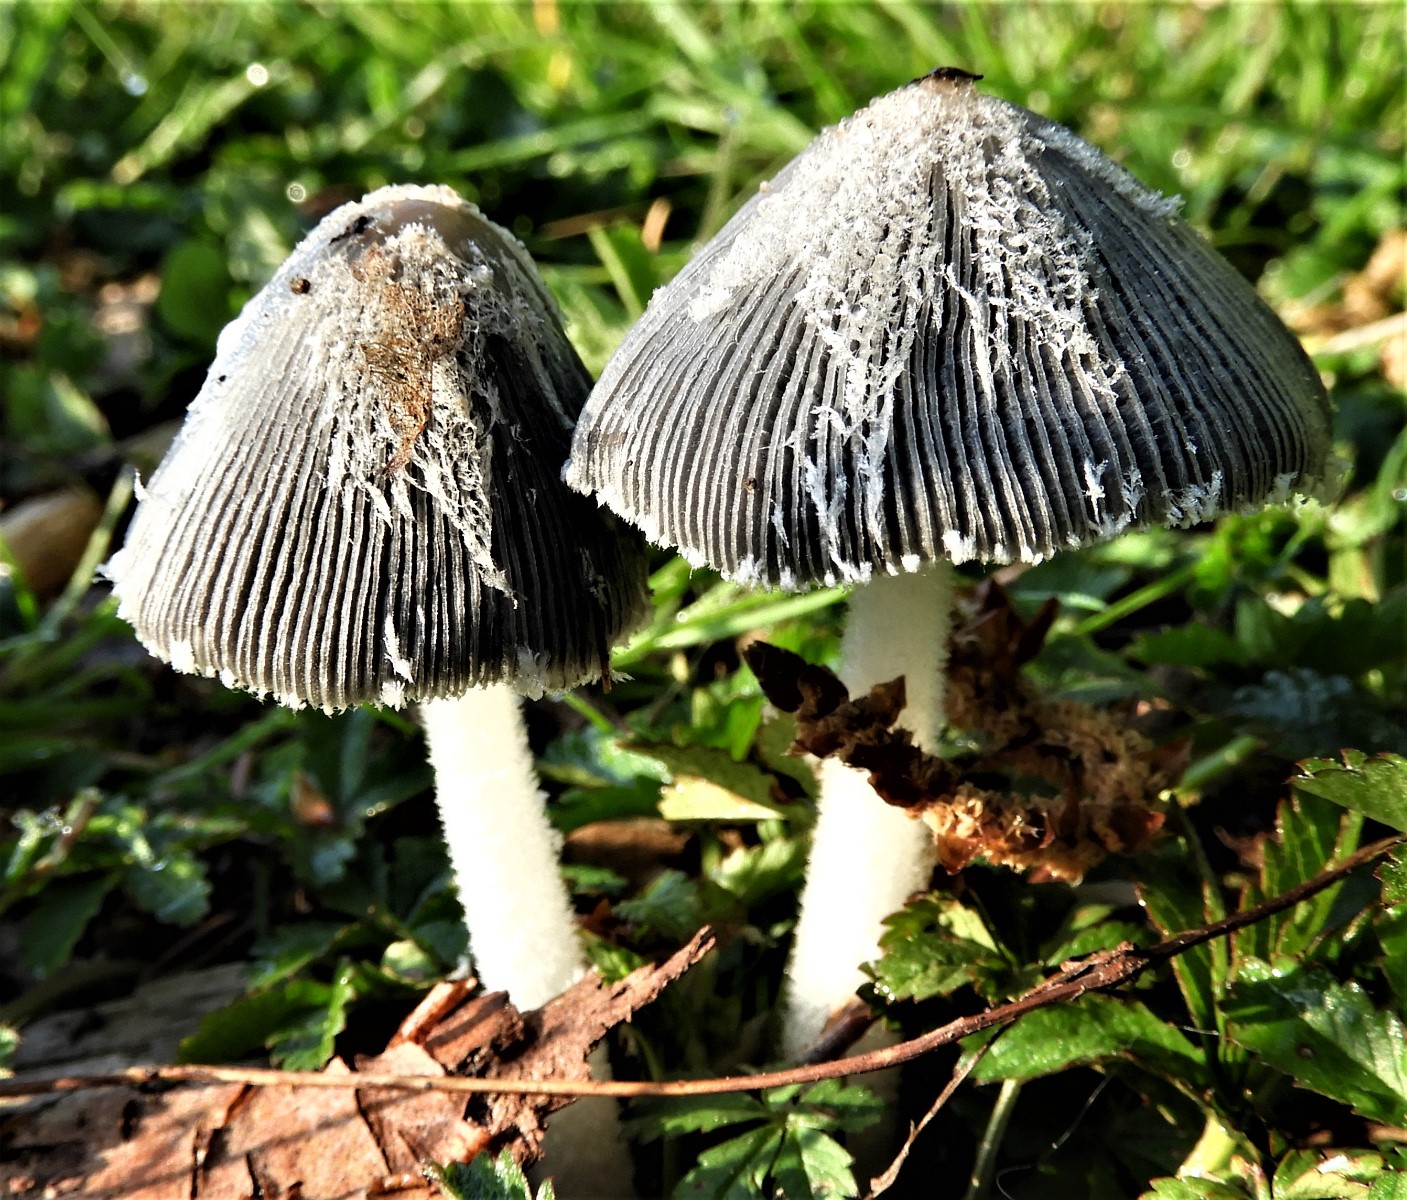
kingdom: Fungi
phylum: Basidiomycota
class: Agaricomycetes
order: Agaricales
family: Psathyrellaceae
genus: Coprinopsis
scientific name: Coprinopsis lagopus
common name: dunstokket blækhat
